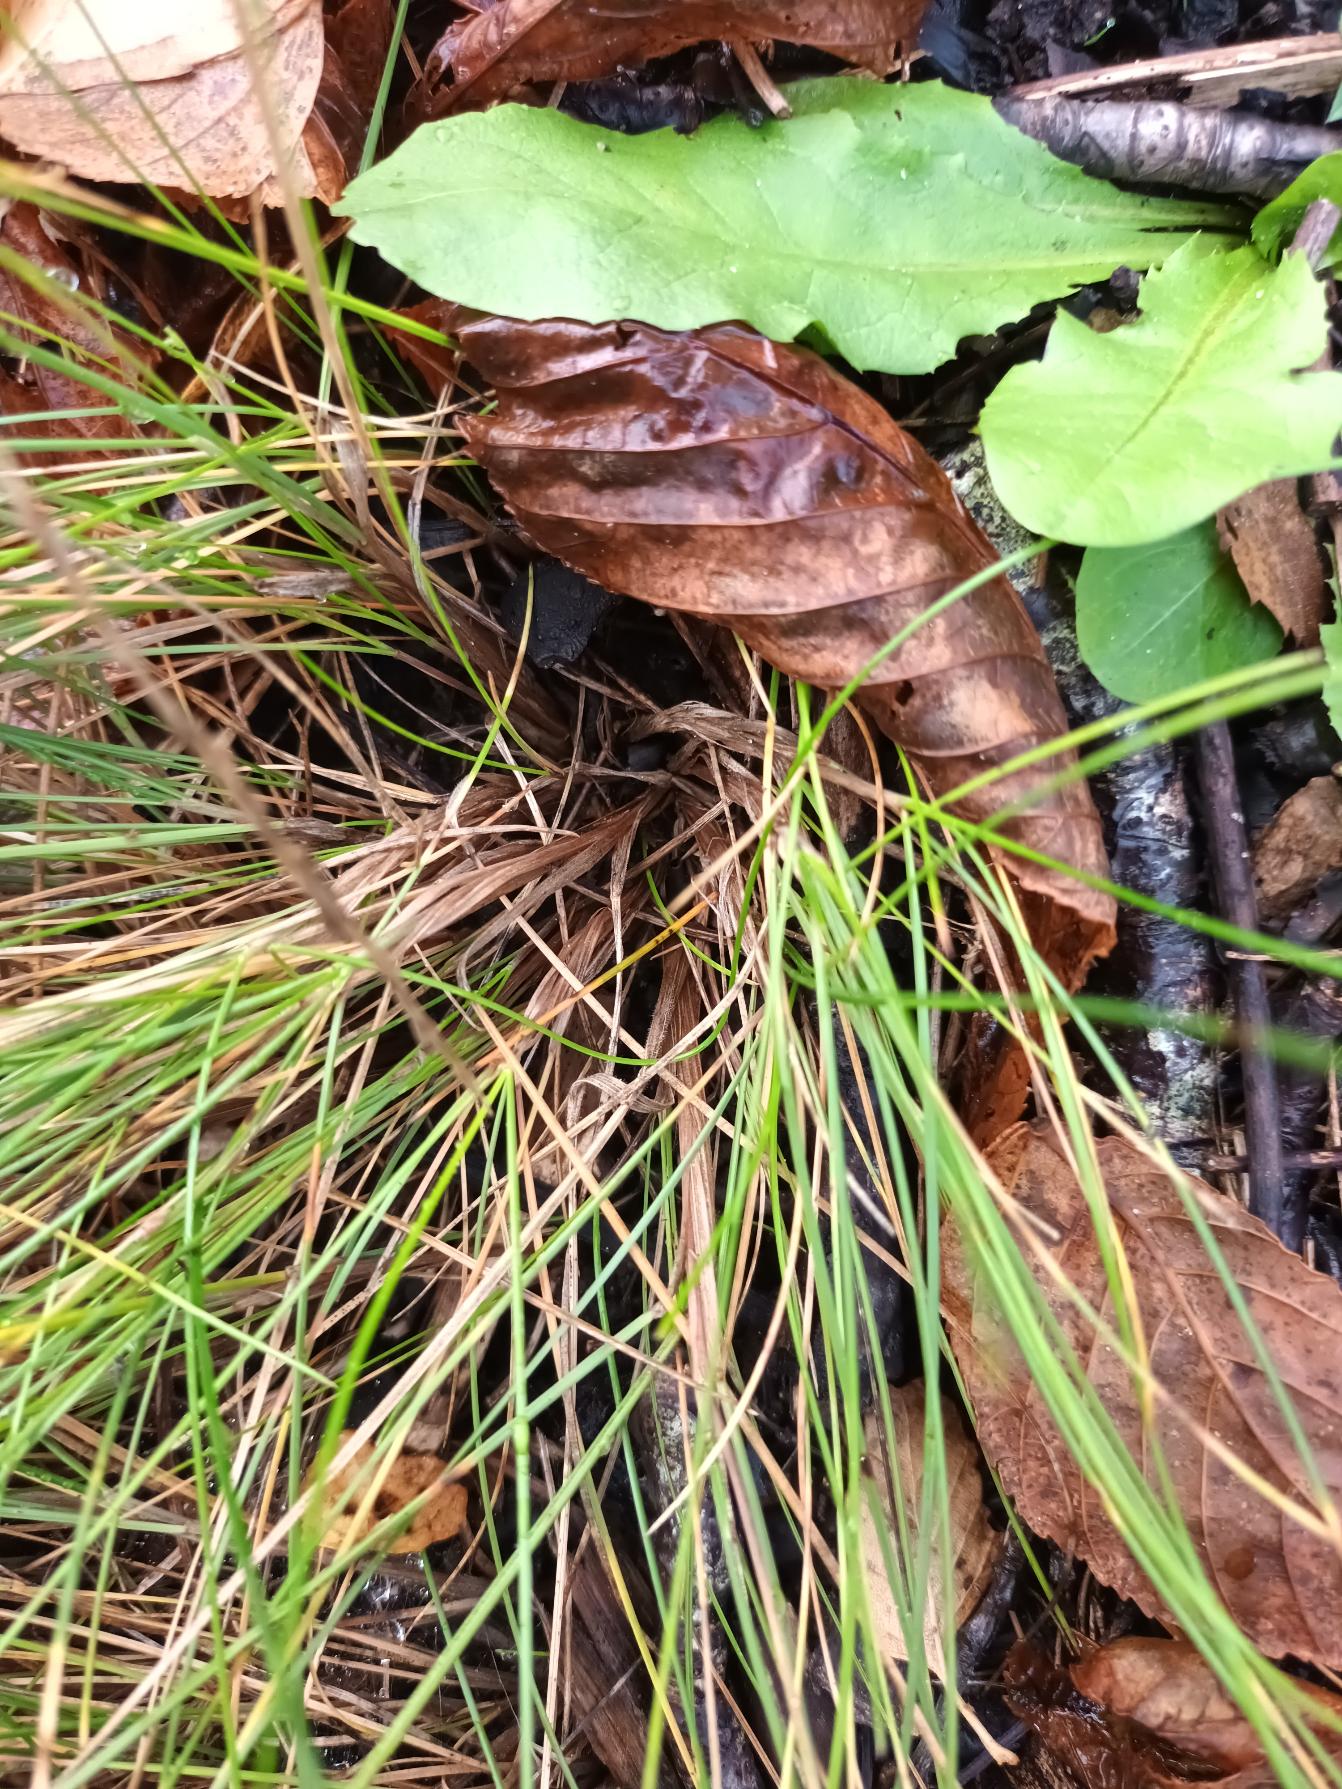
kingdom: Plantae
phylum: Tracheophyta
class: Liliopsida
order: Poales
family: Poaceae
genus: Festuca
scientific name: Festuca trachyphylla
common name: Bakke-svingel
